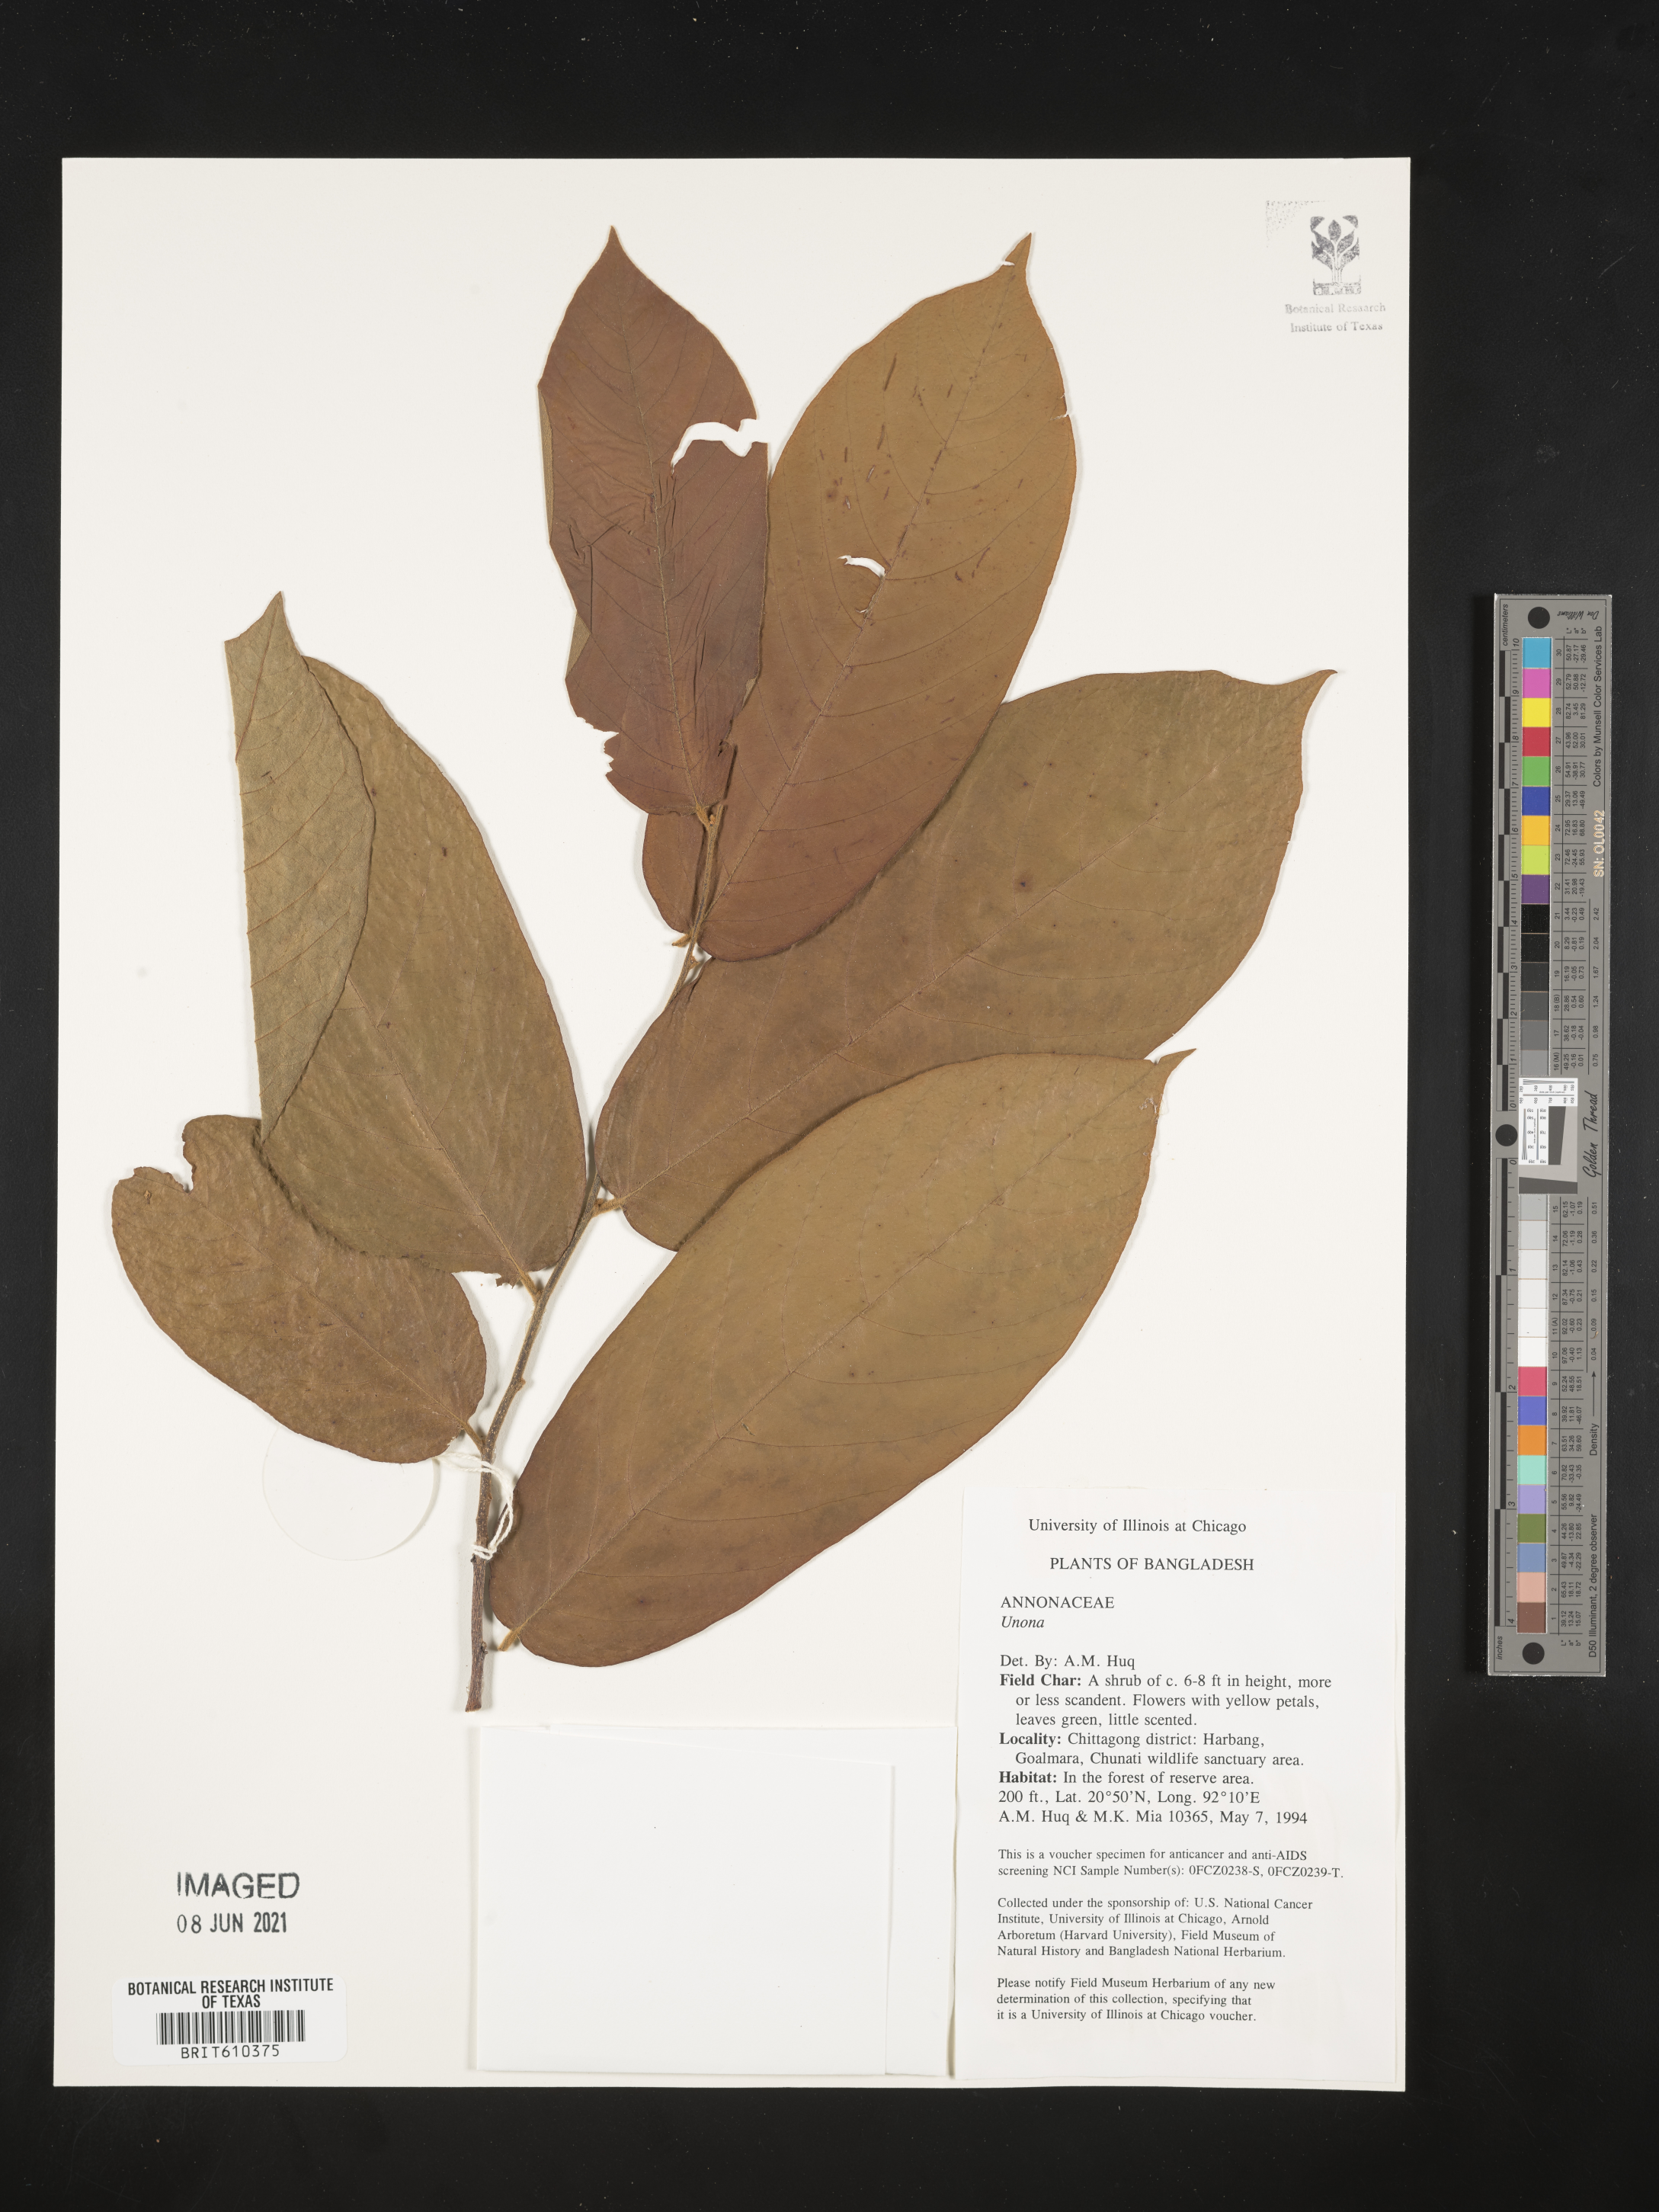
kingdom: Plantae
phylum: Tracheophyta
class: Magnoliopsida
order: Magnoliales
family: Annonaceae
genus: Unona
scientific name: Unona
